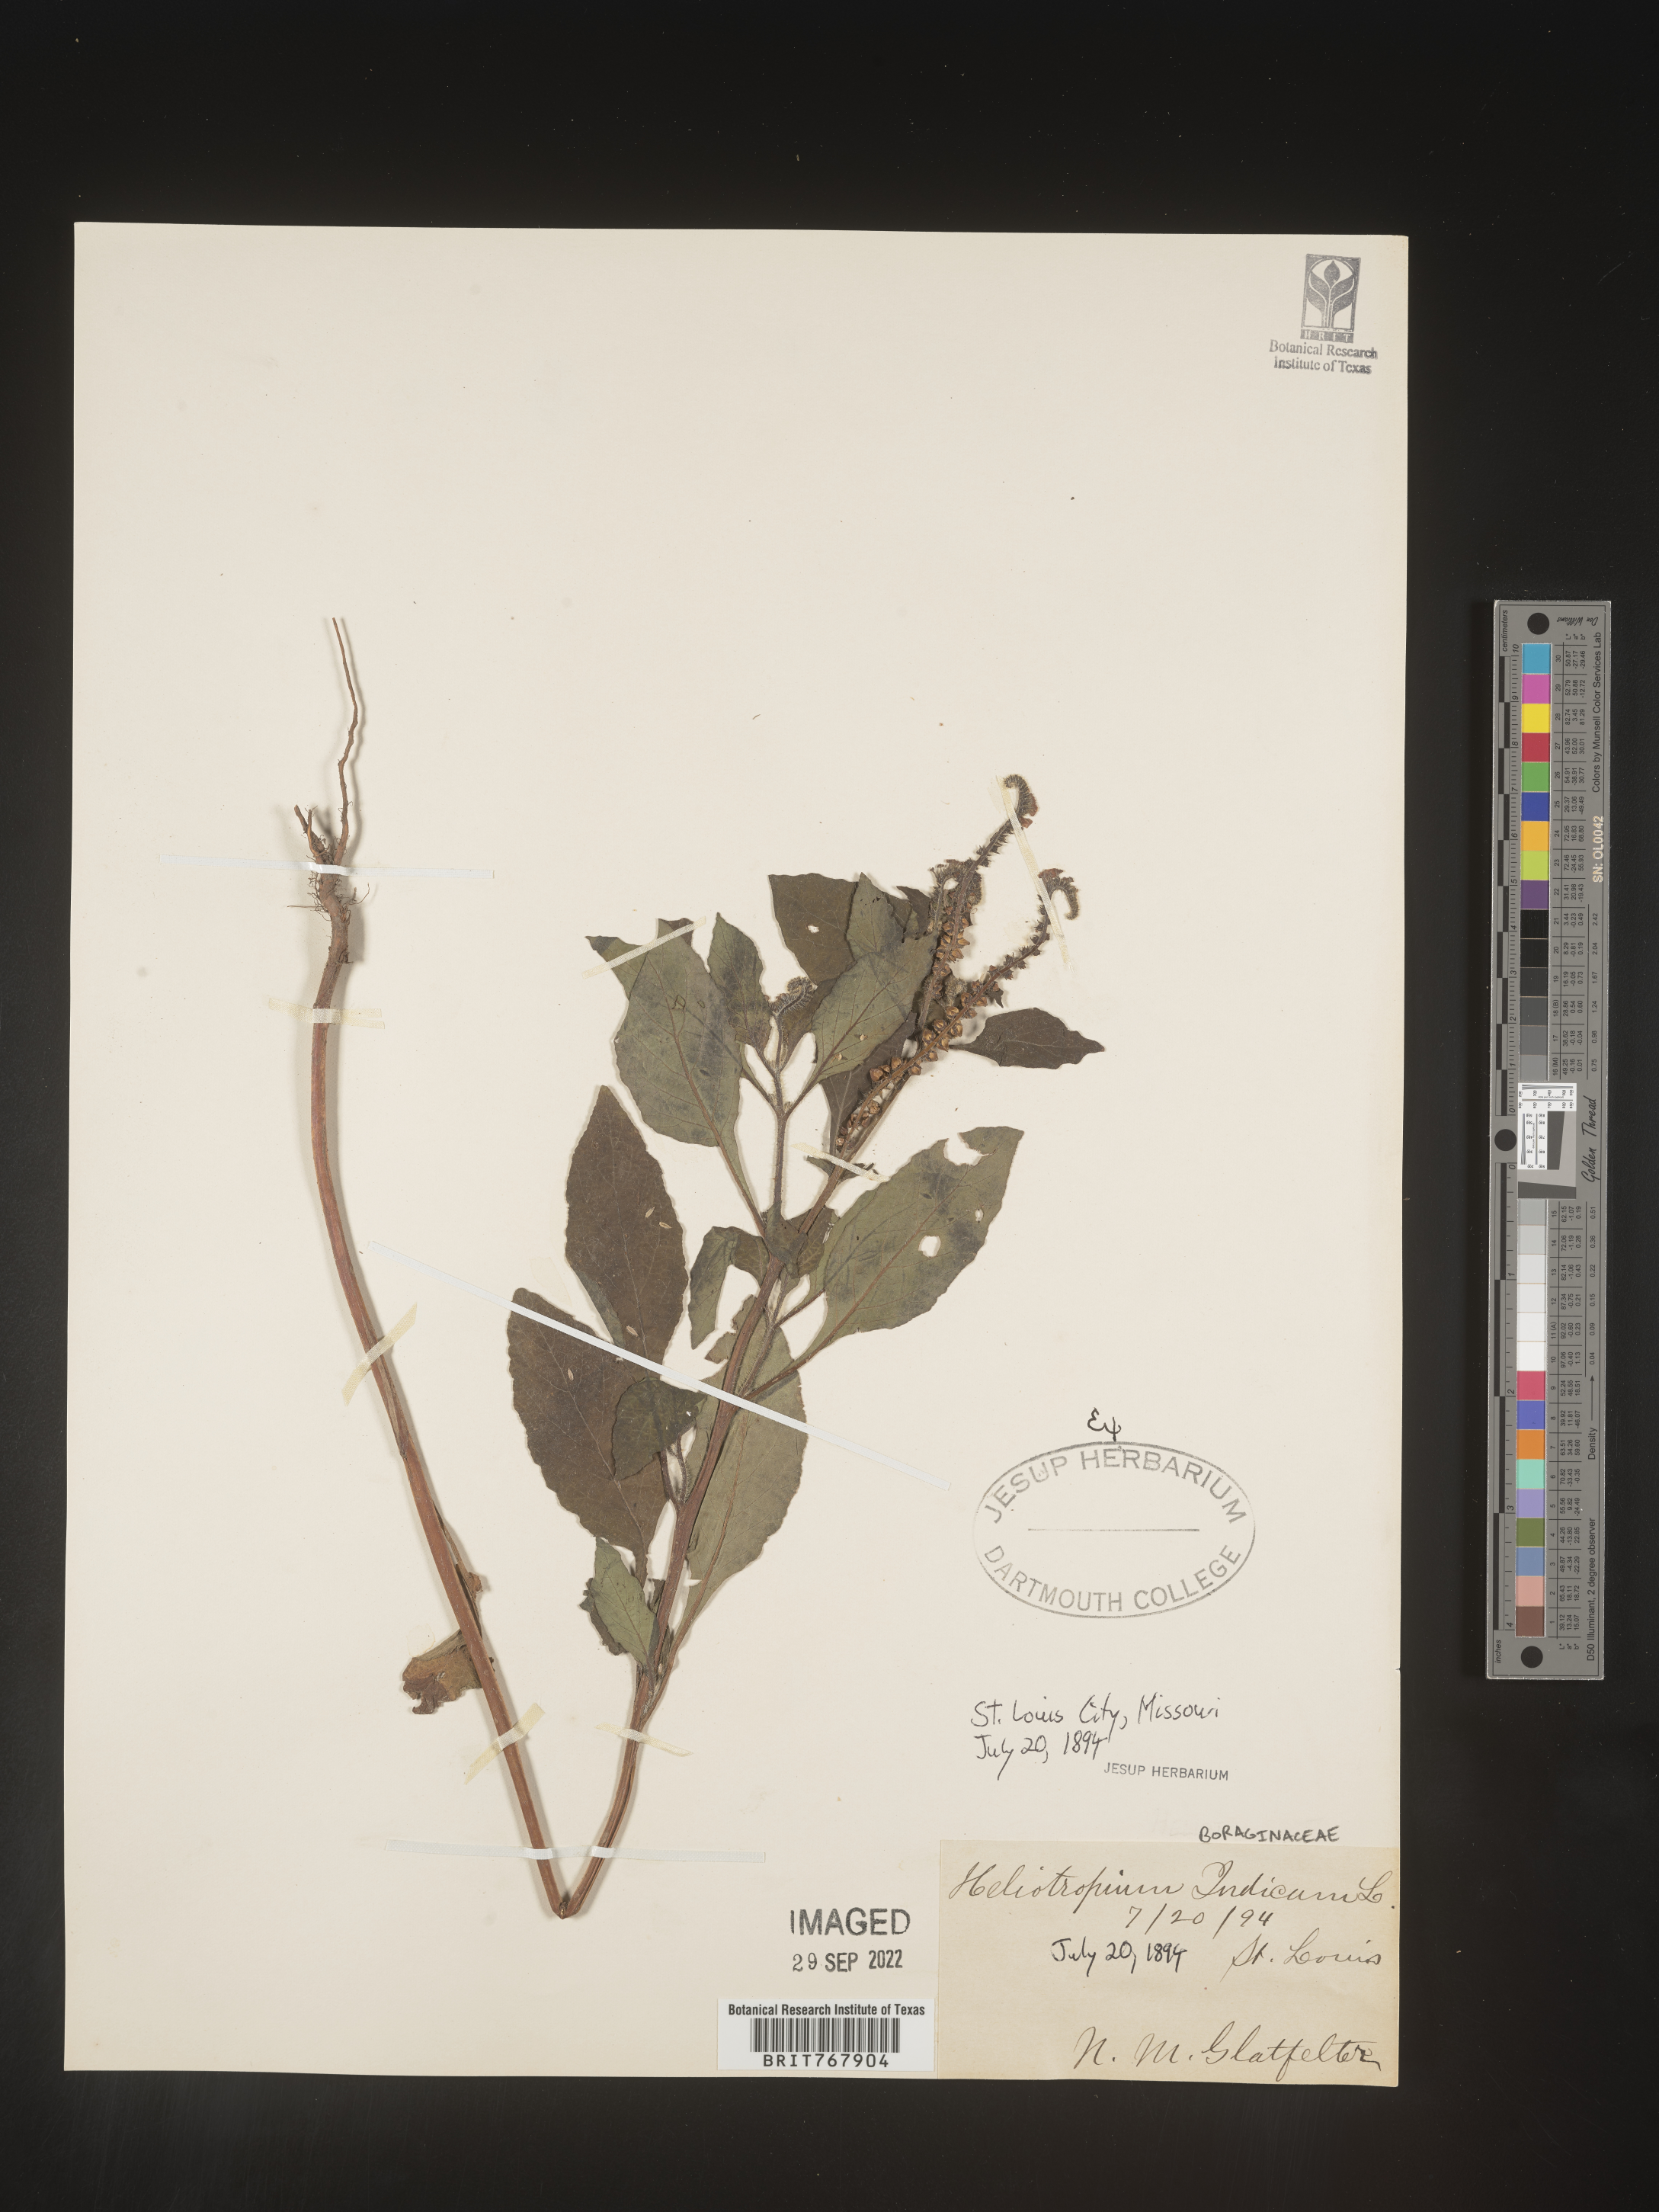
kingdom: Plantae
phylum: Tracheophyta
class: Magnoliopsida
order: Boraginales
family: Heliotropiaceae
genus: Heliotropium
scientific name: Heliotropium indicum
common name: Indian heliotrope
